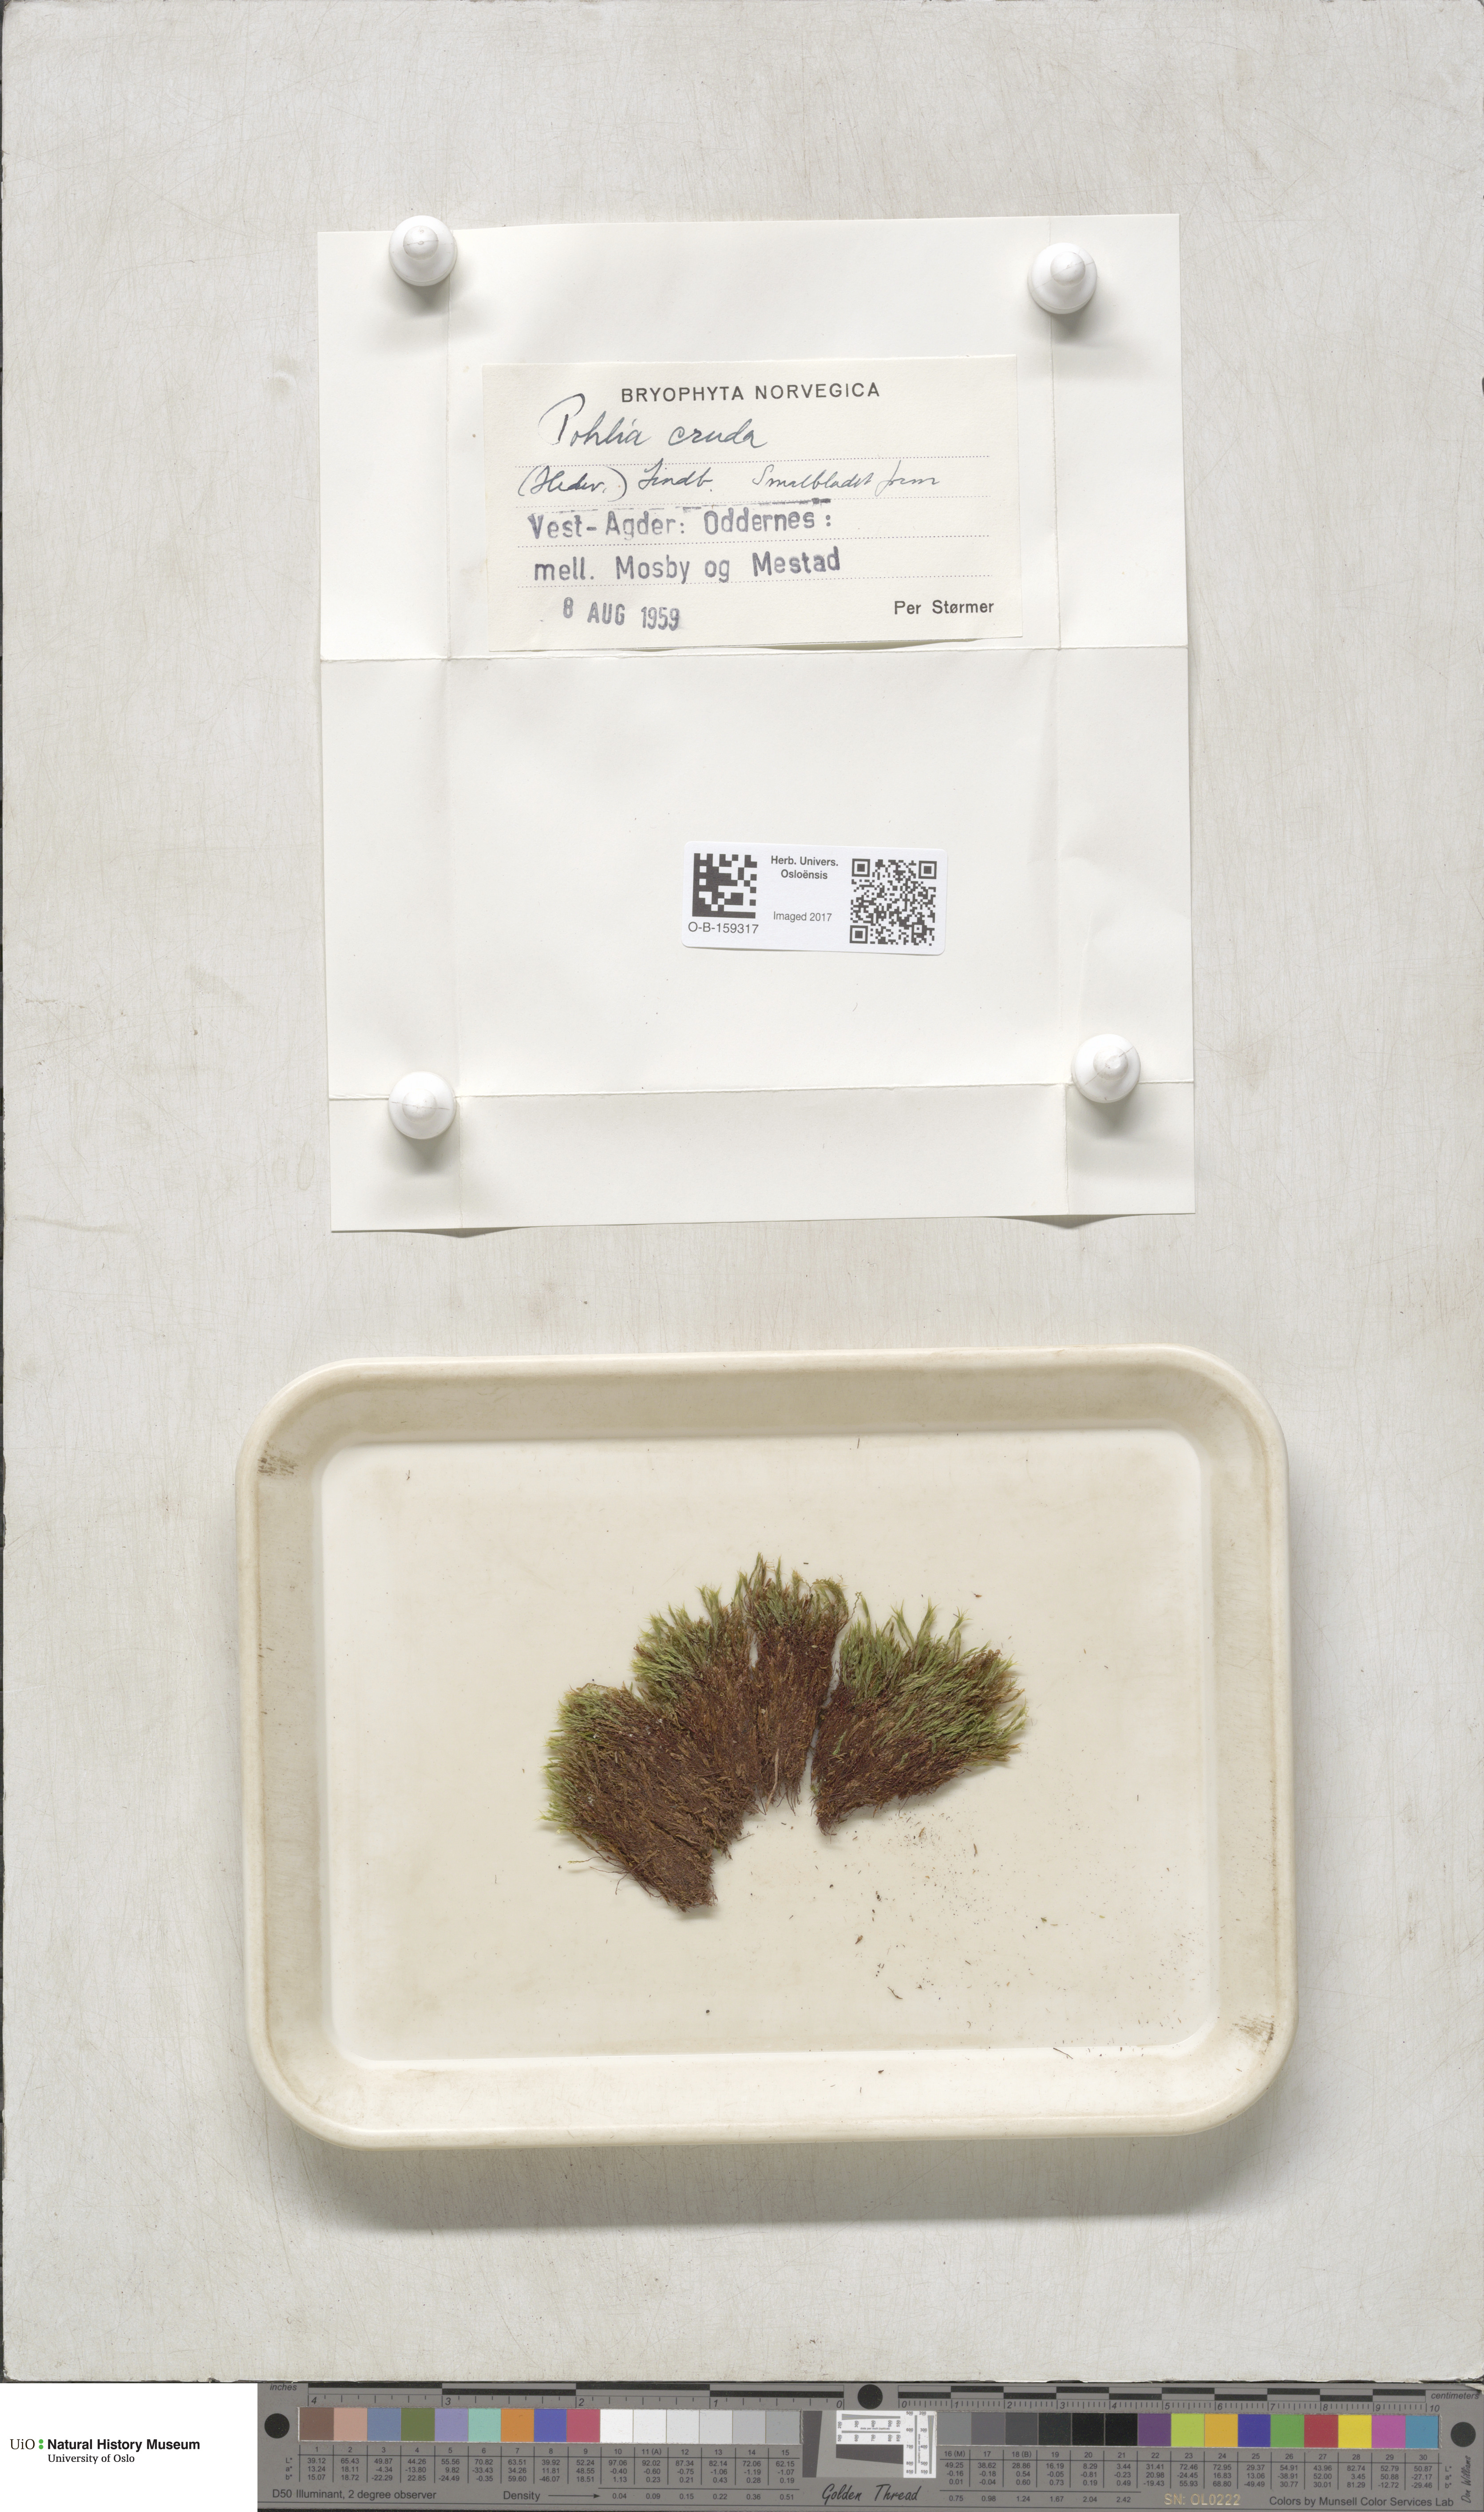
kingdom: Plantae
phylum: Bryophyta
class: Bryopsida
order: Bryales
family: Mniaceae
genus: Pohlia
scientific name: Pohlia cruda
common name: Opal nodding moss
